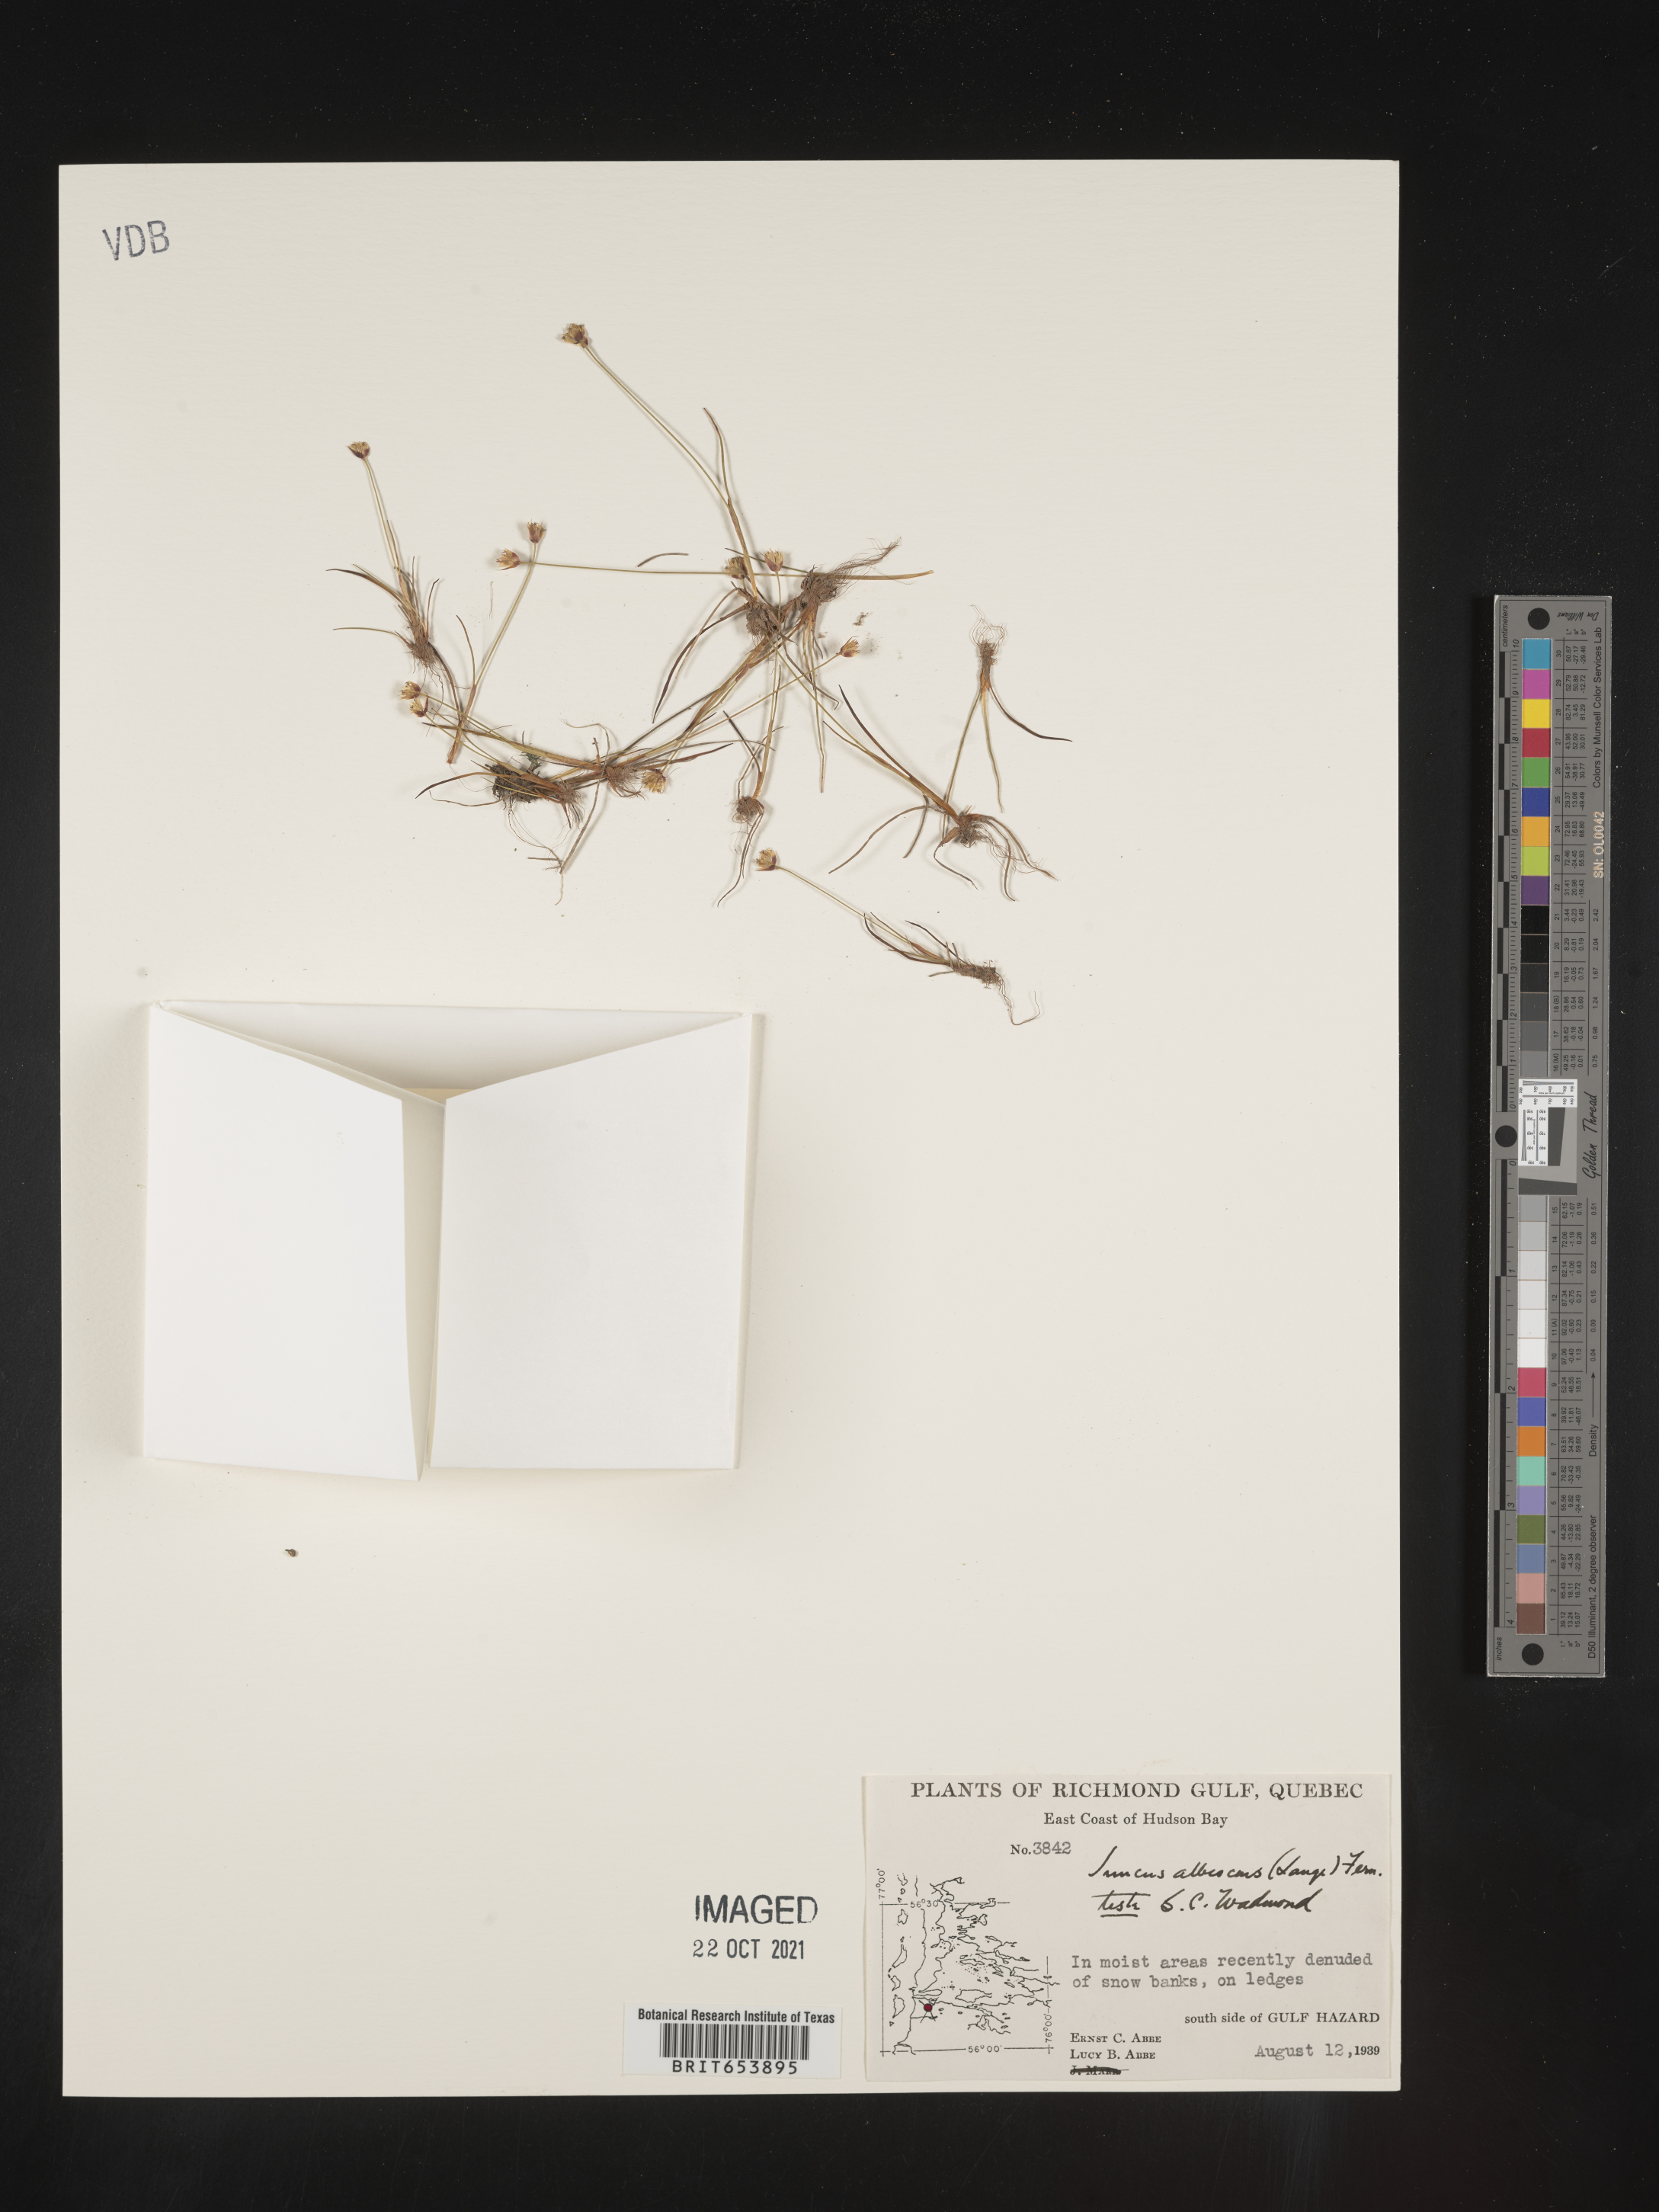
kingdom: Plantae
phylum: Tracheophyta
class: Liliopsida
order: Poales
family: Juncaceae
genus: Juncus
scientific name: Juncus
